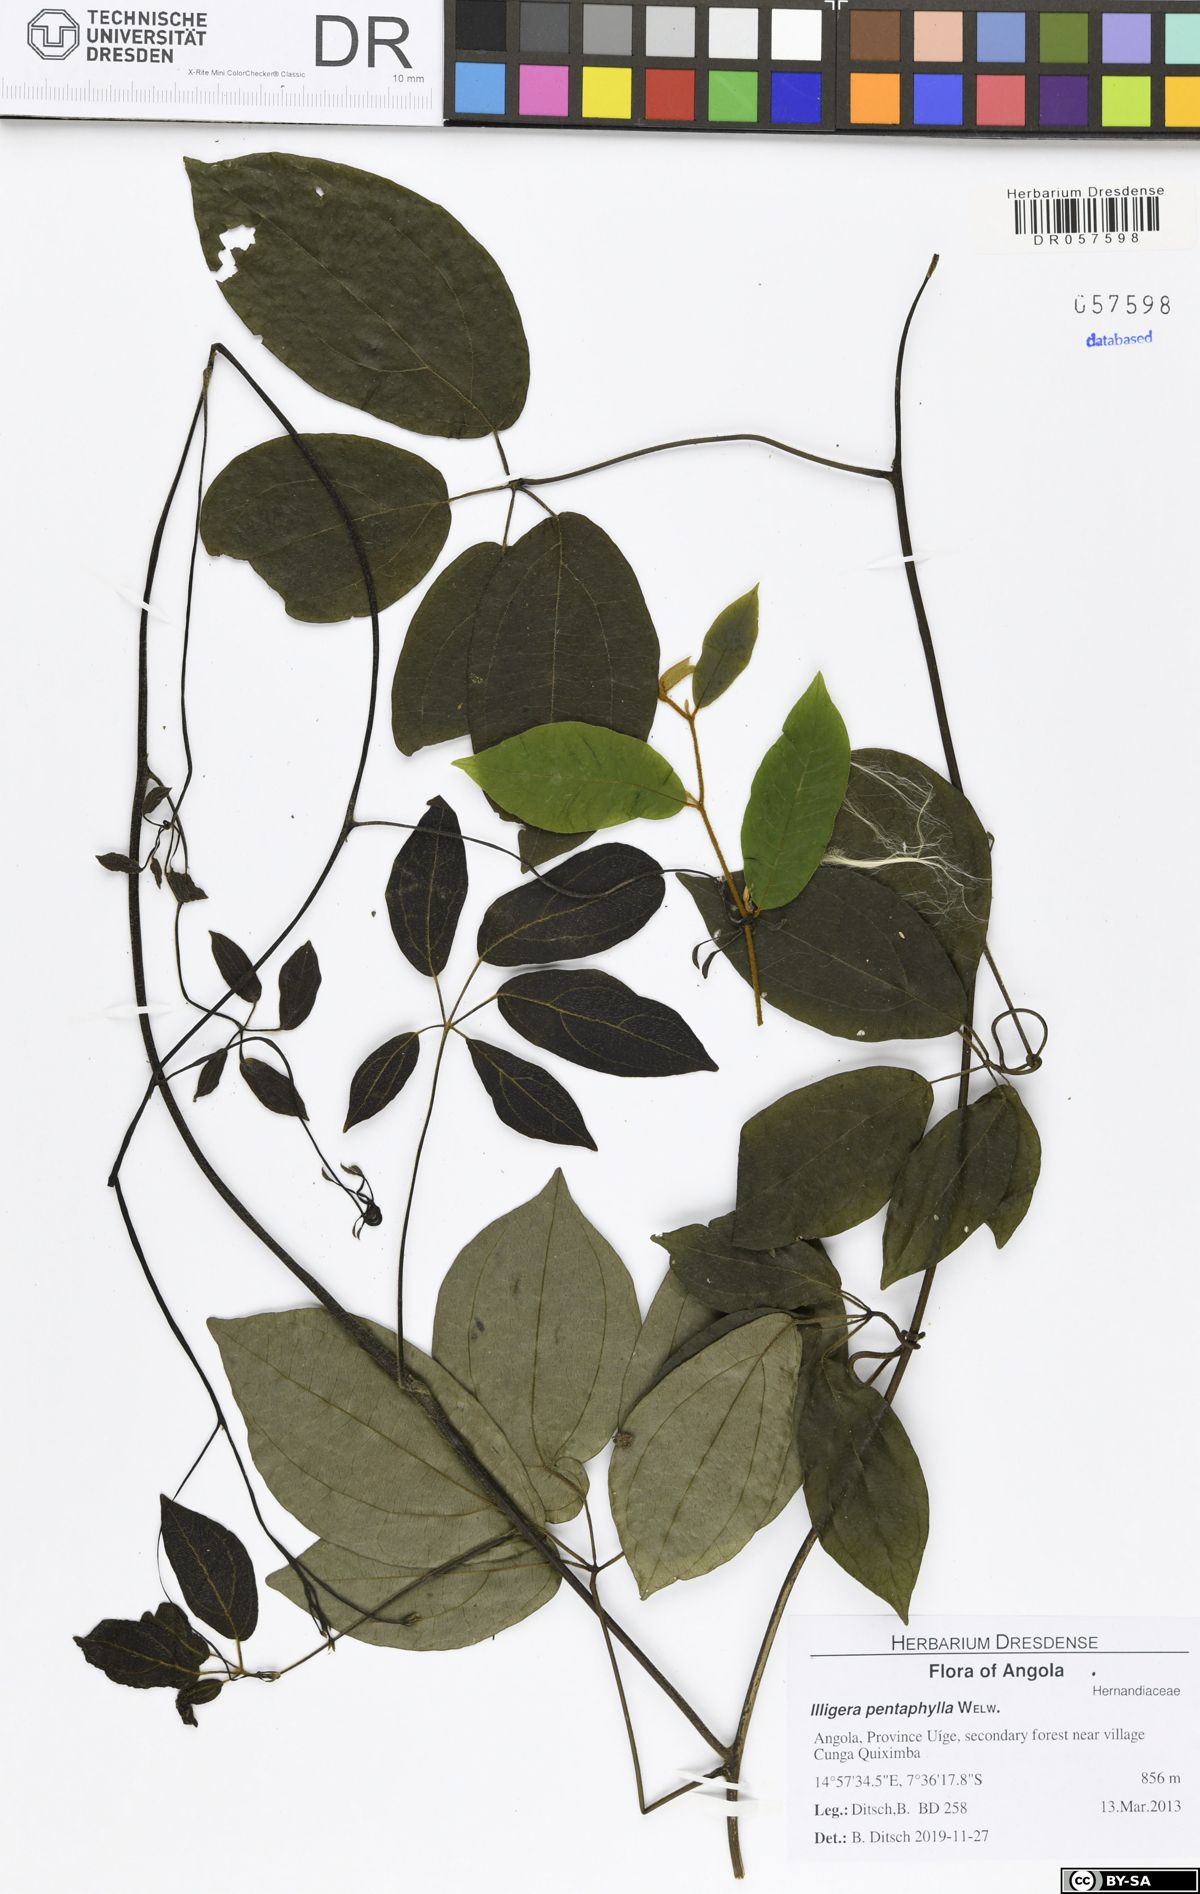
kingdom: Plantae
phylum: Tracheophyta
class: Magnoliopsida
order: Laurales
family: Hernandiaceae
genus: Illigera
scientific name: Illigera pentaphylla
